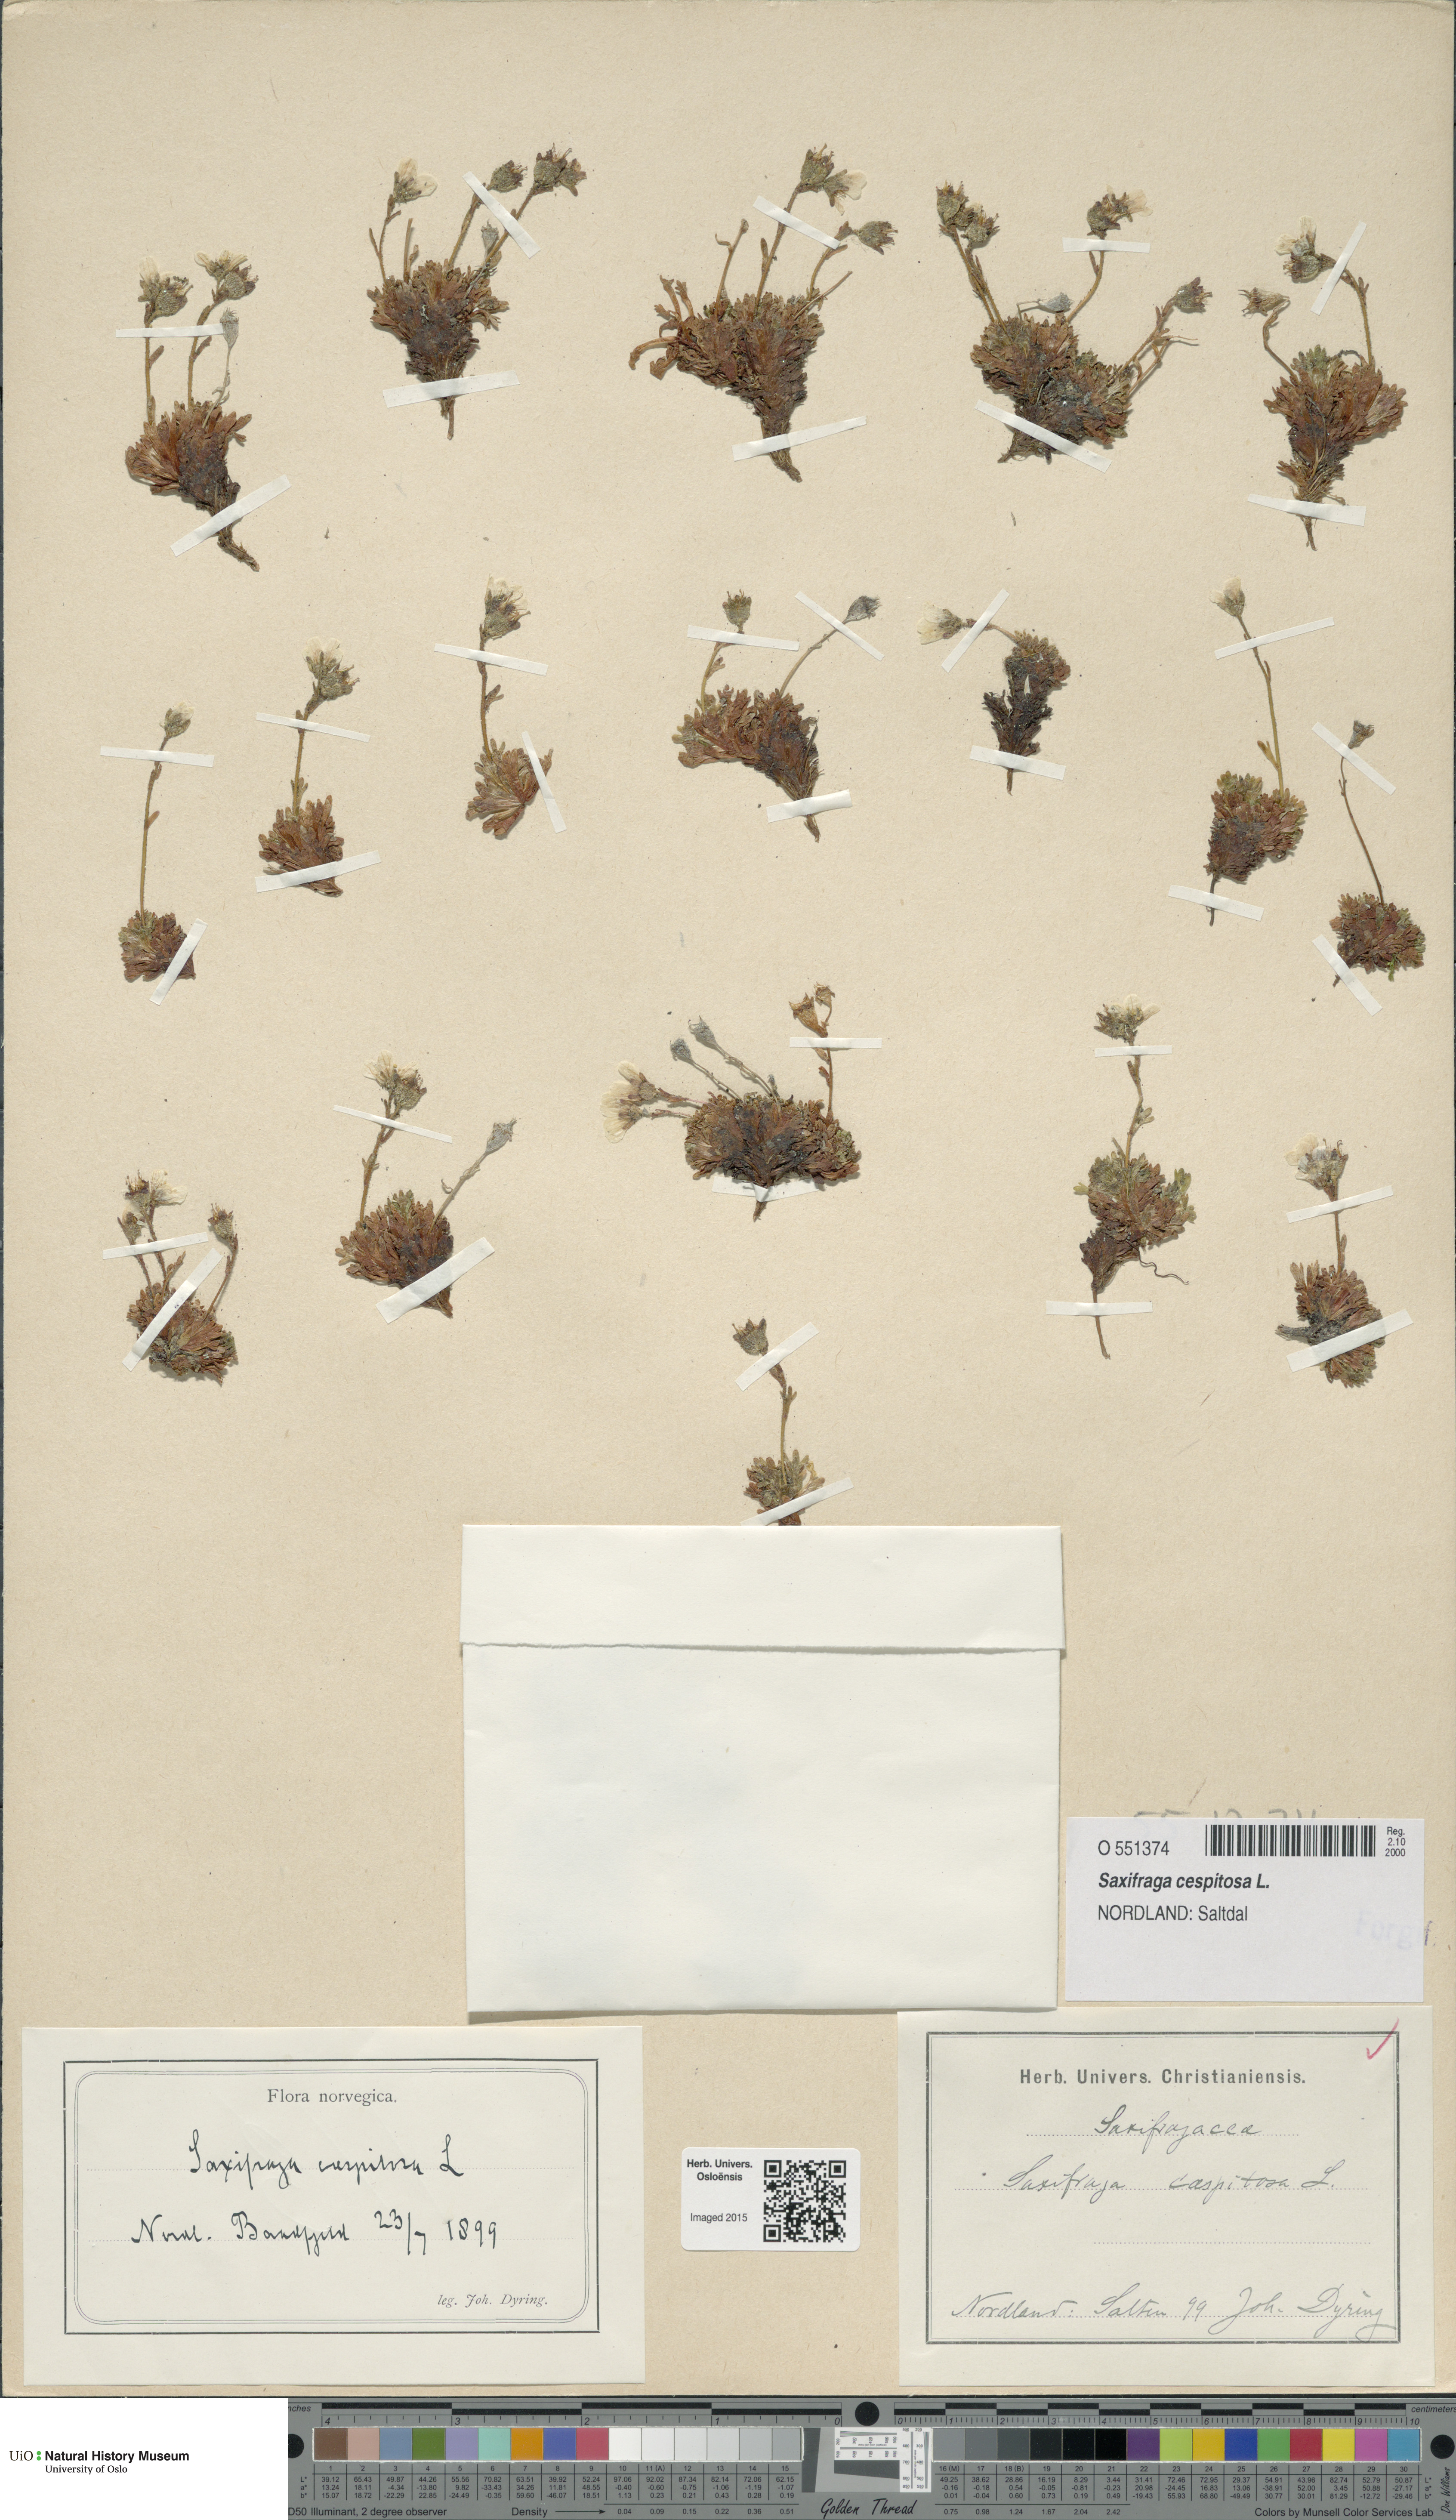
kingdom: Plantae
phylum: Tracheophyta
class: Magnoliopsida
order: Saxifragales
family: Saxifragaceae
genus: Saxifraga
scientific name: Saxifraga cespitosa
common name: Tufted saxifrage
